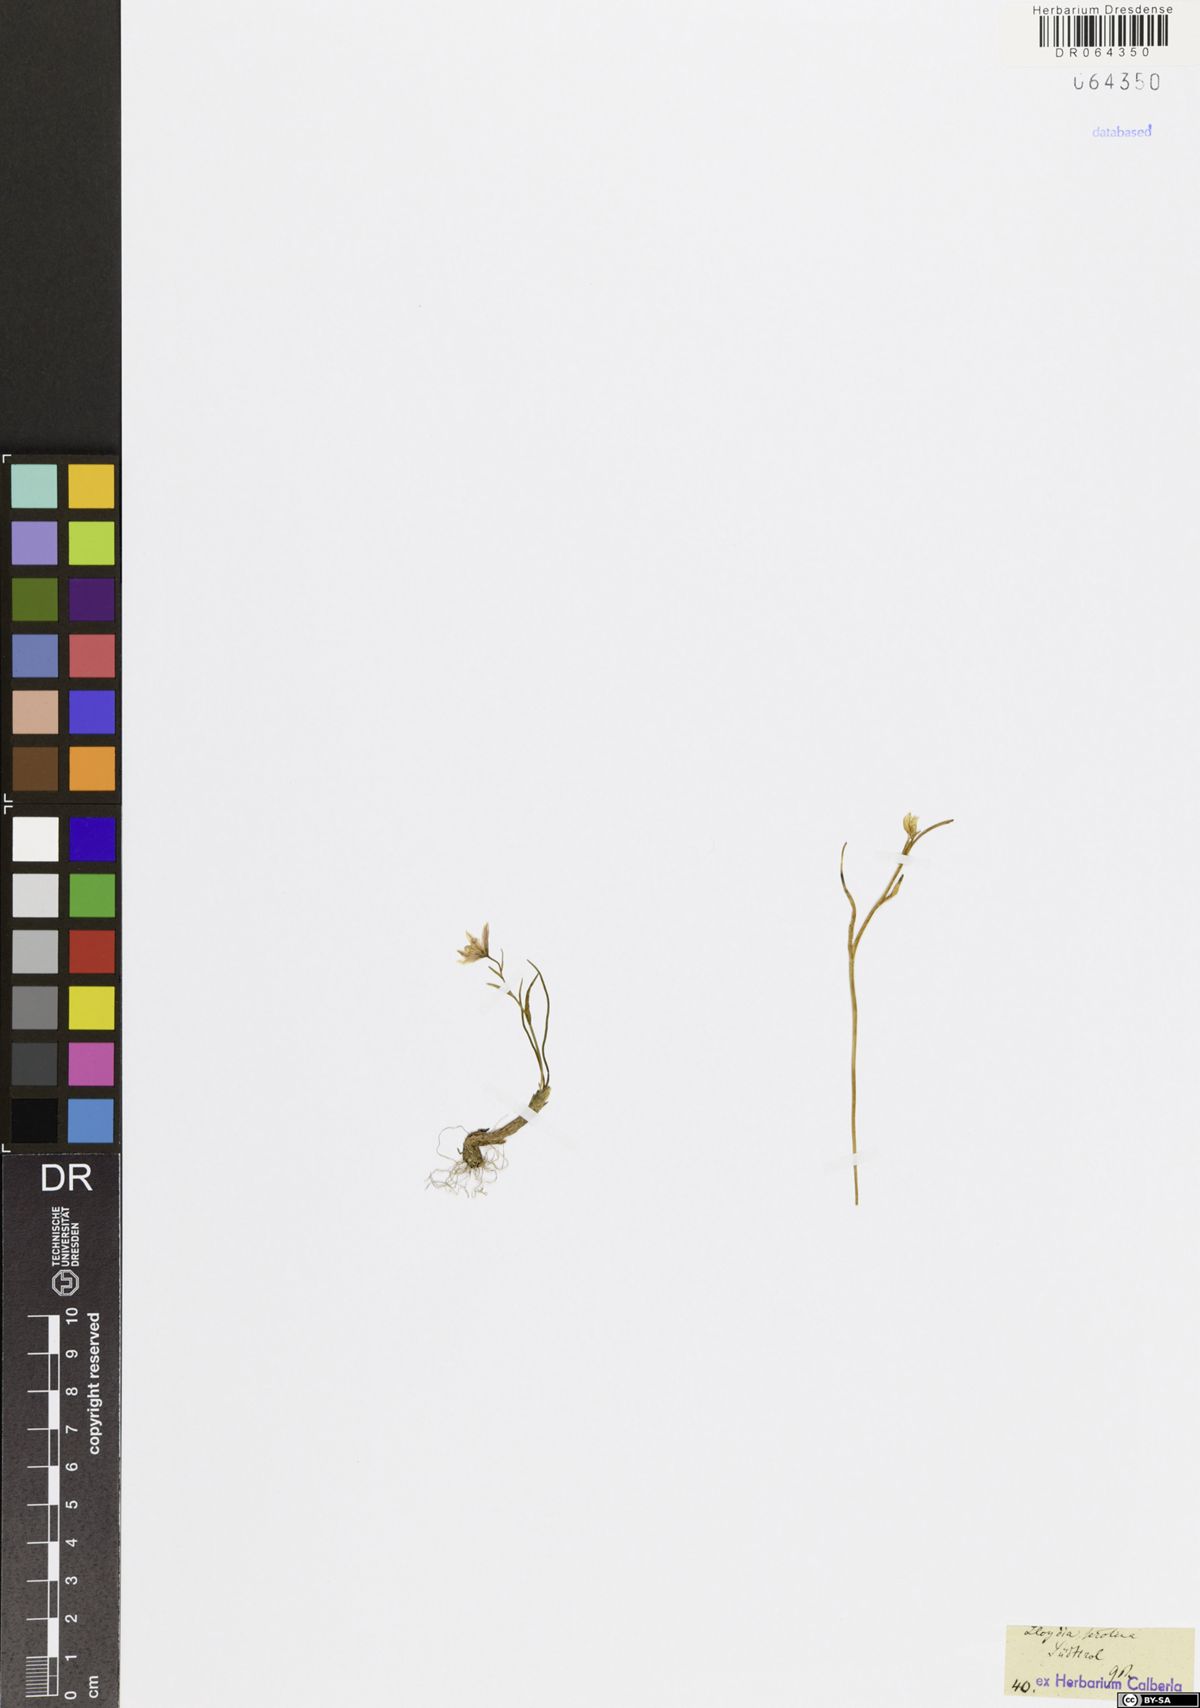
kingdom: Plantae
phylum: Tracheophyta
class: Liliopsida
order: Liliales
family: Liliaceae
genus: Gagea
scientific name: Gagea serotina
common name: Snowdon lily
